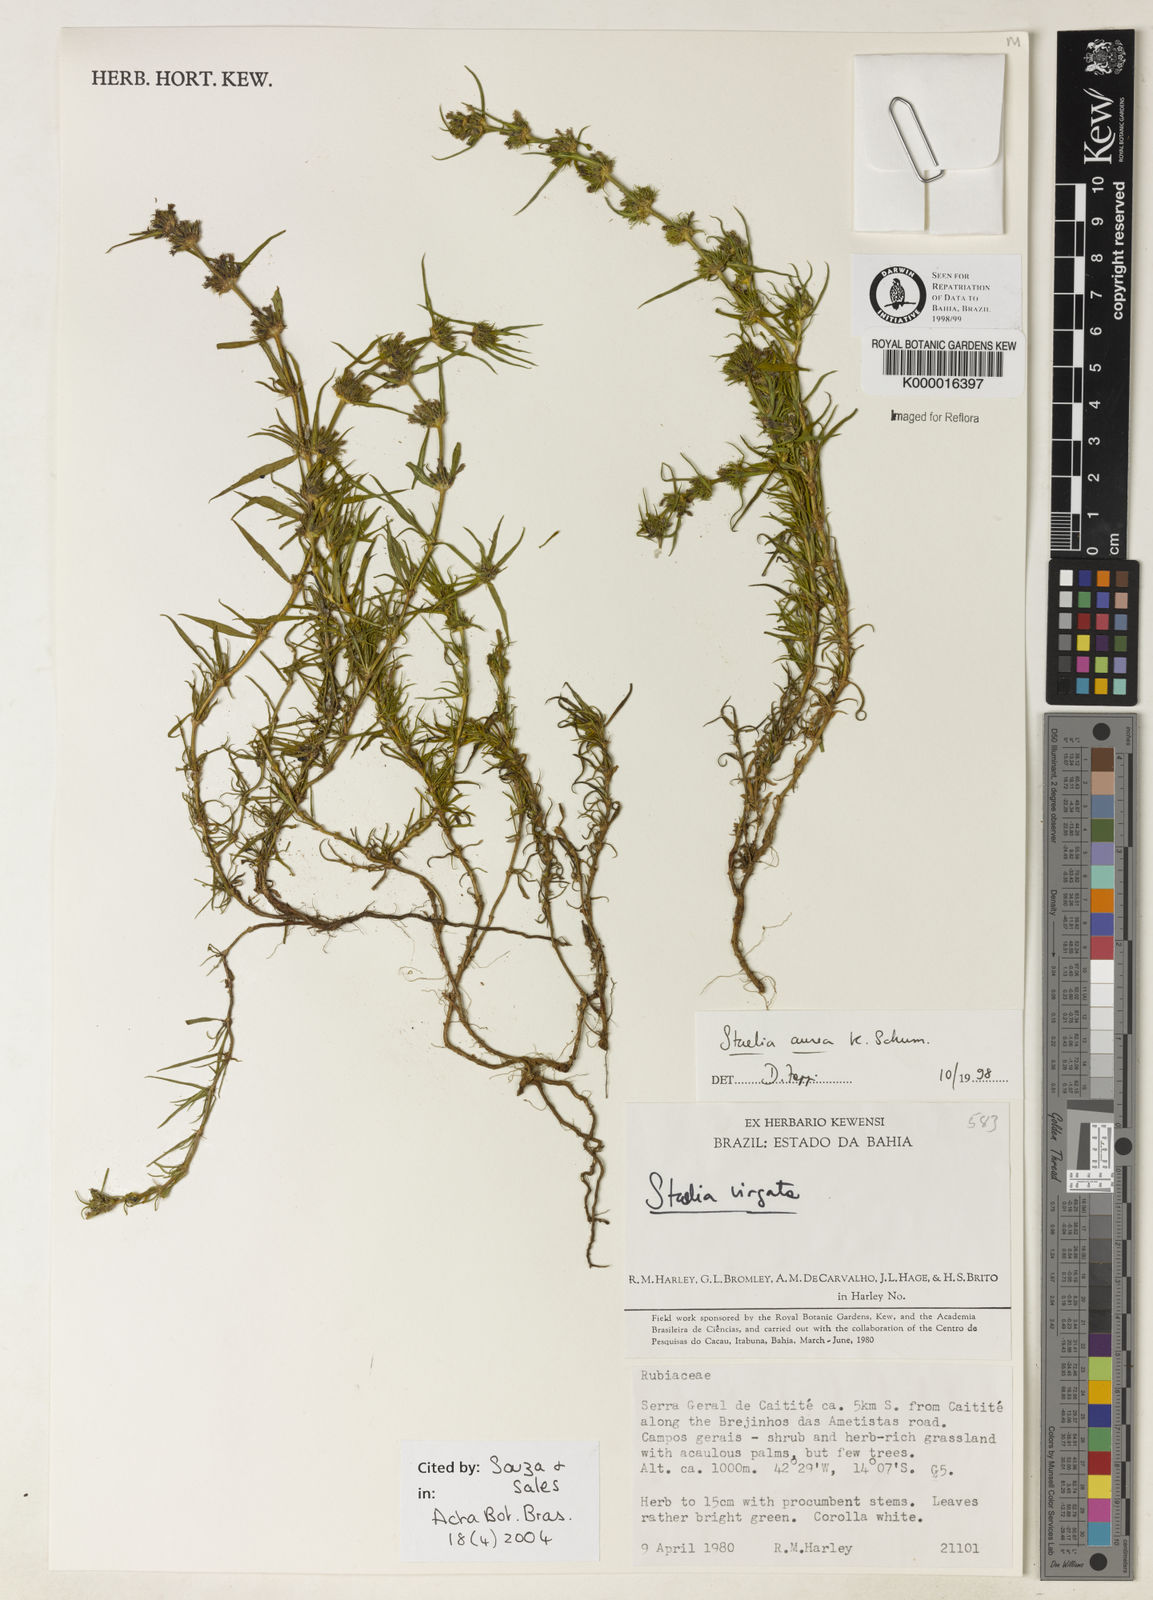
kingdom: Plantae
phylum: Tracheophyta
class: Magnoliopsida
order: Gentianales
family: Rubiaceae
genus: Staelia
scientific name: Staelia aurea
